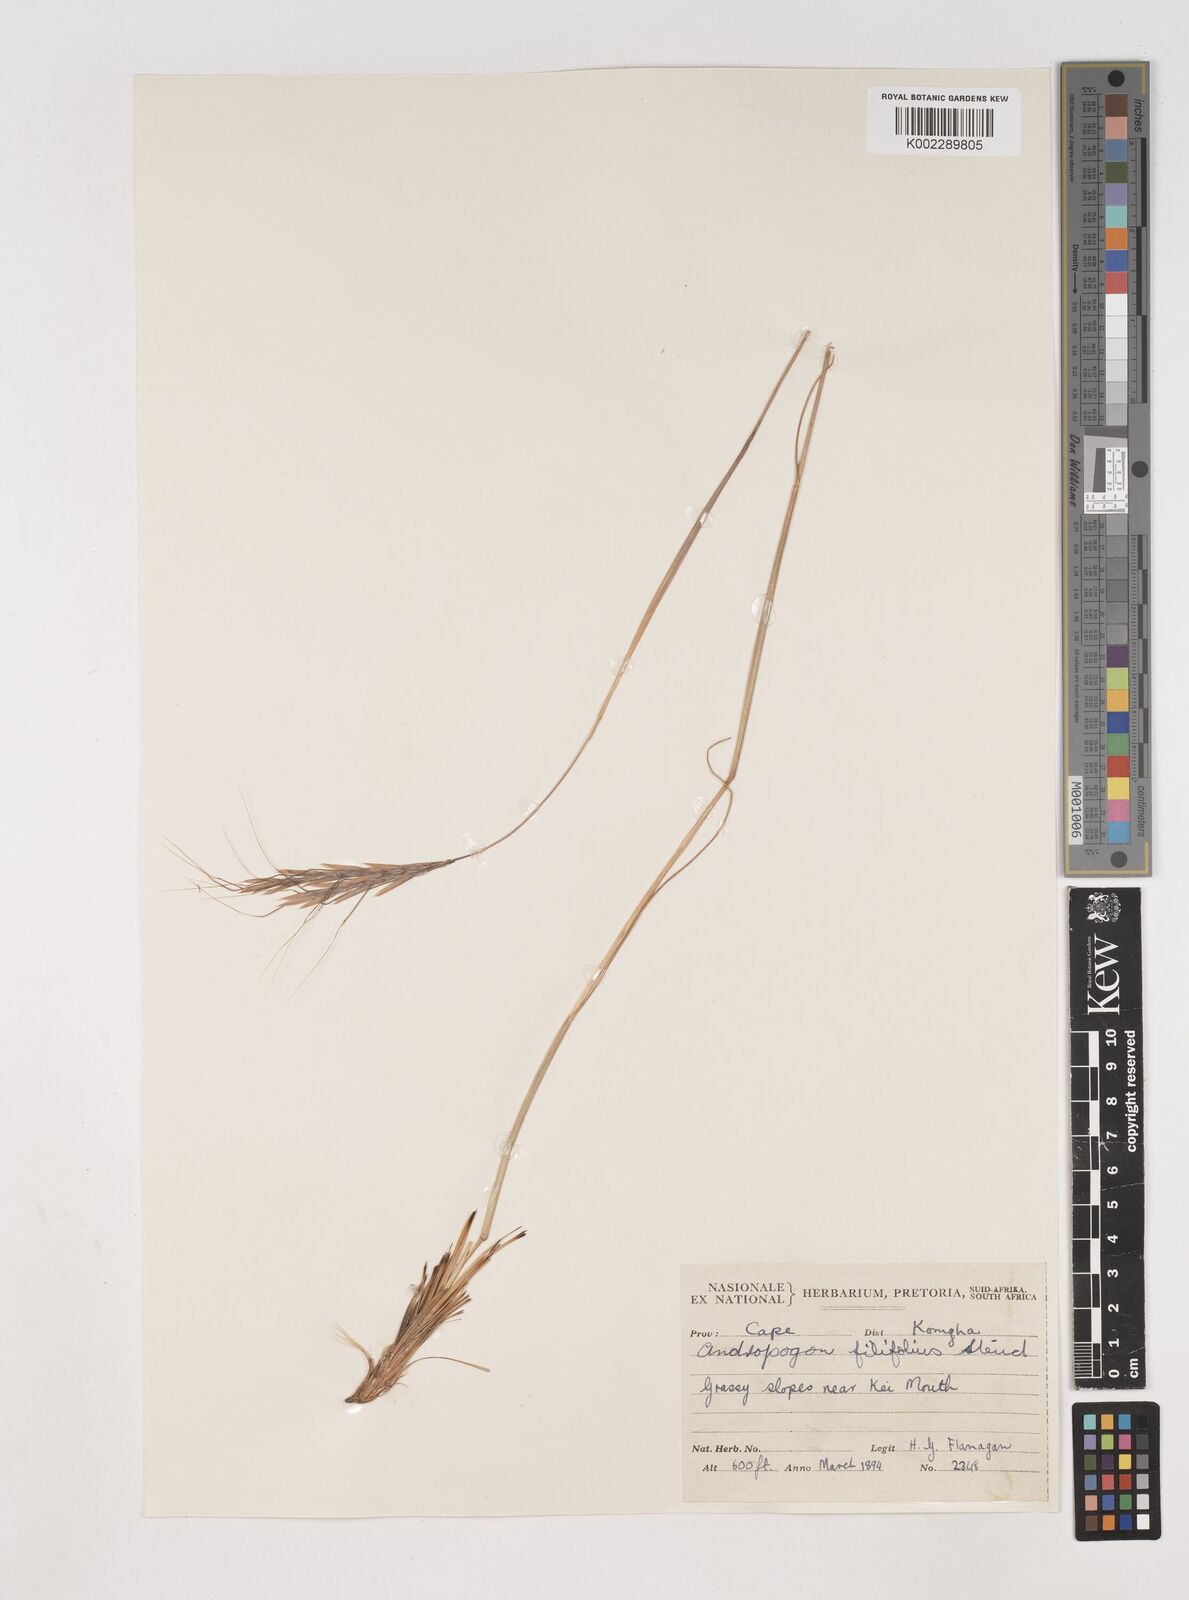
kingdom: Plantae
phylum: Tracheophyta
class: Liliopsida
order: Poales
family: Poaceae
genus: Diheteropogon
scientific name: Diheteropogon filifolius
